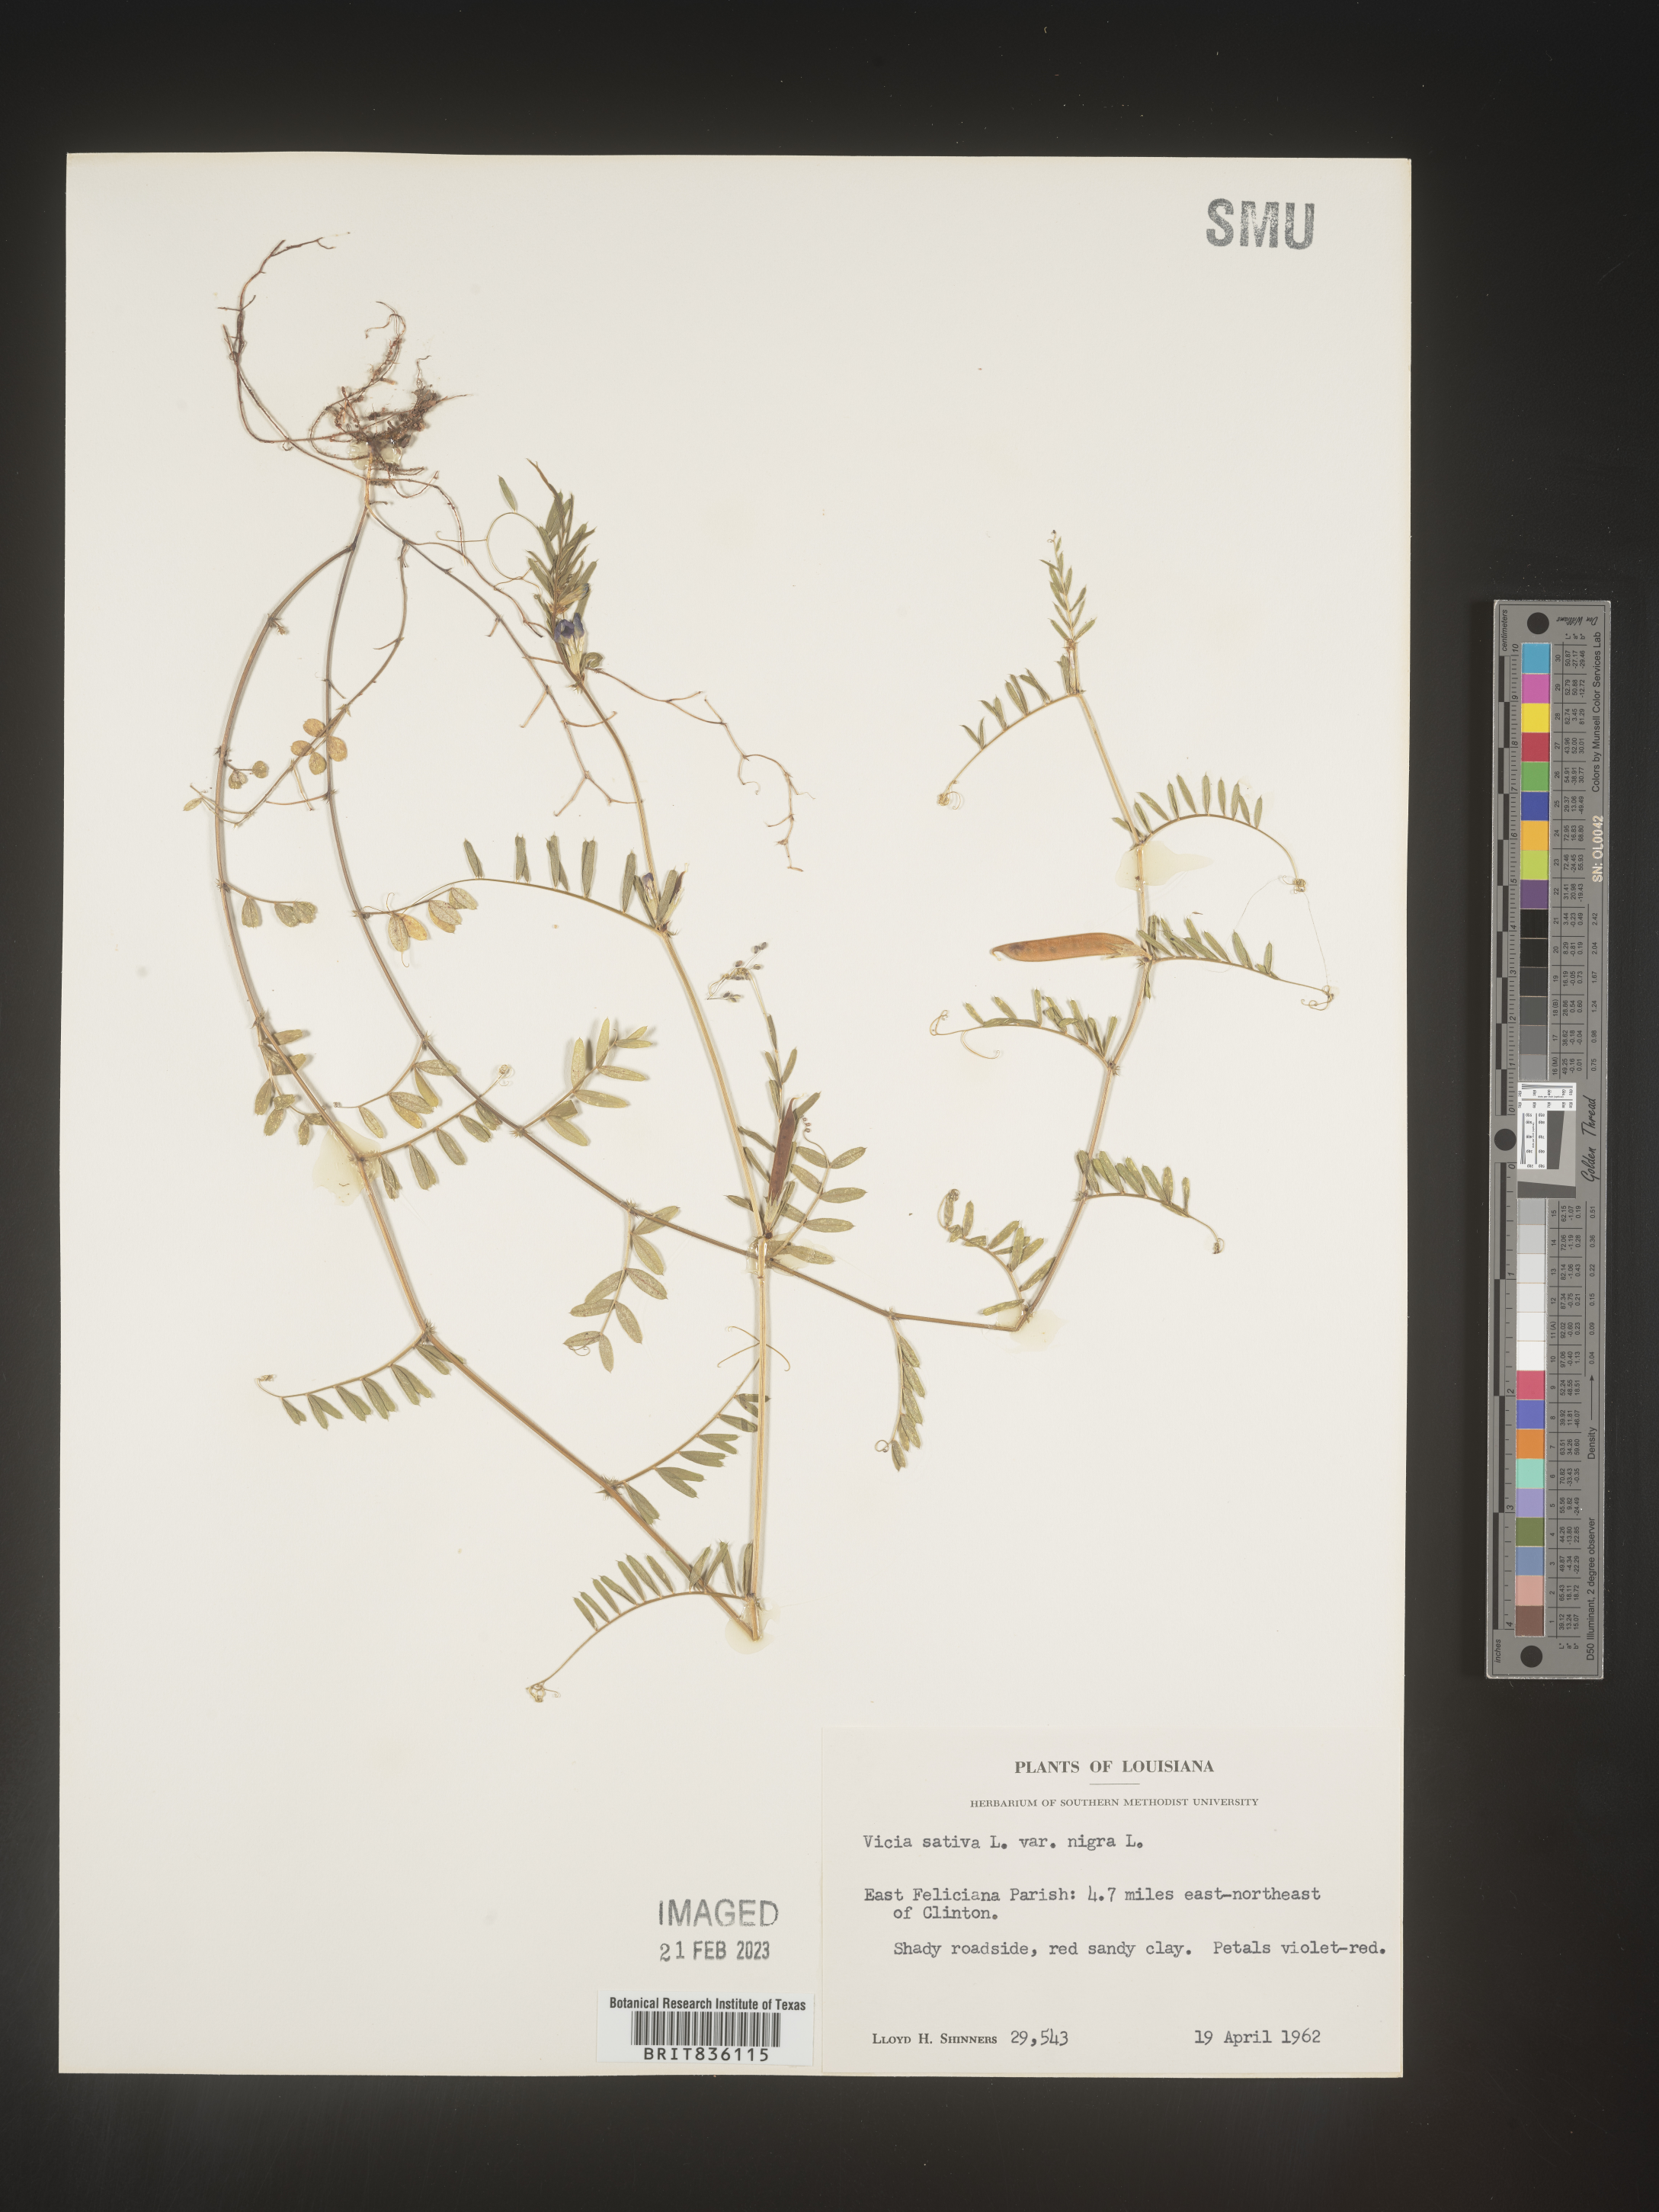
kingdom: Plantae
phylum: Tracheophyta
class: Magnoliopsida
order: Fabales
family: Fabaceae
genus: Vicia
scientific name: Vicia sativa
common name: Garden vetch
